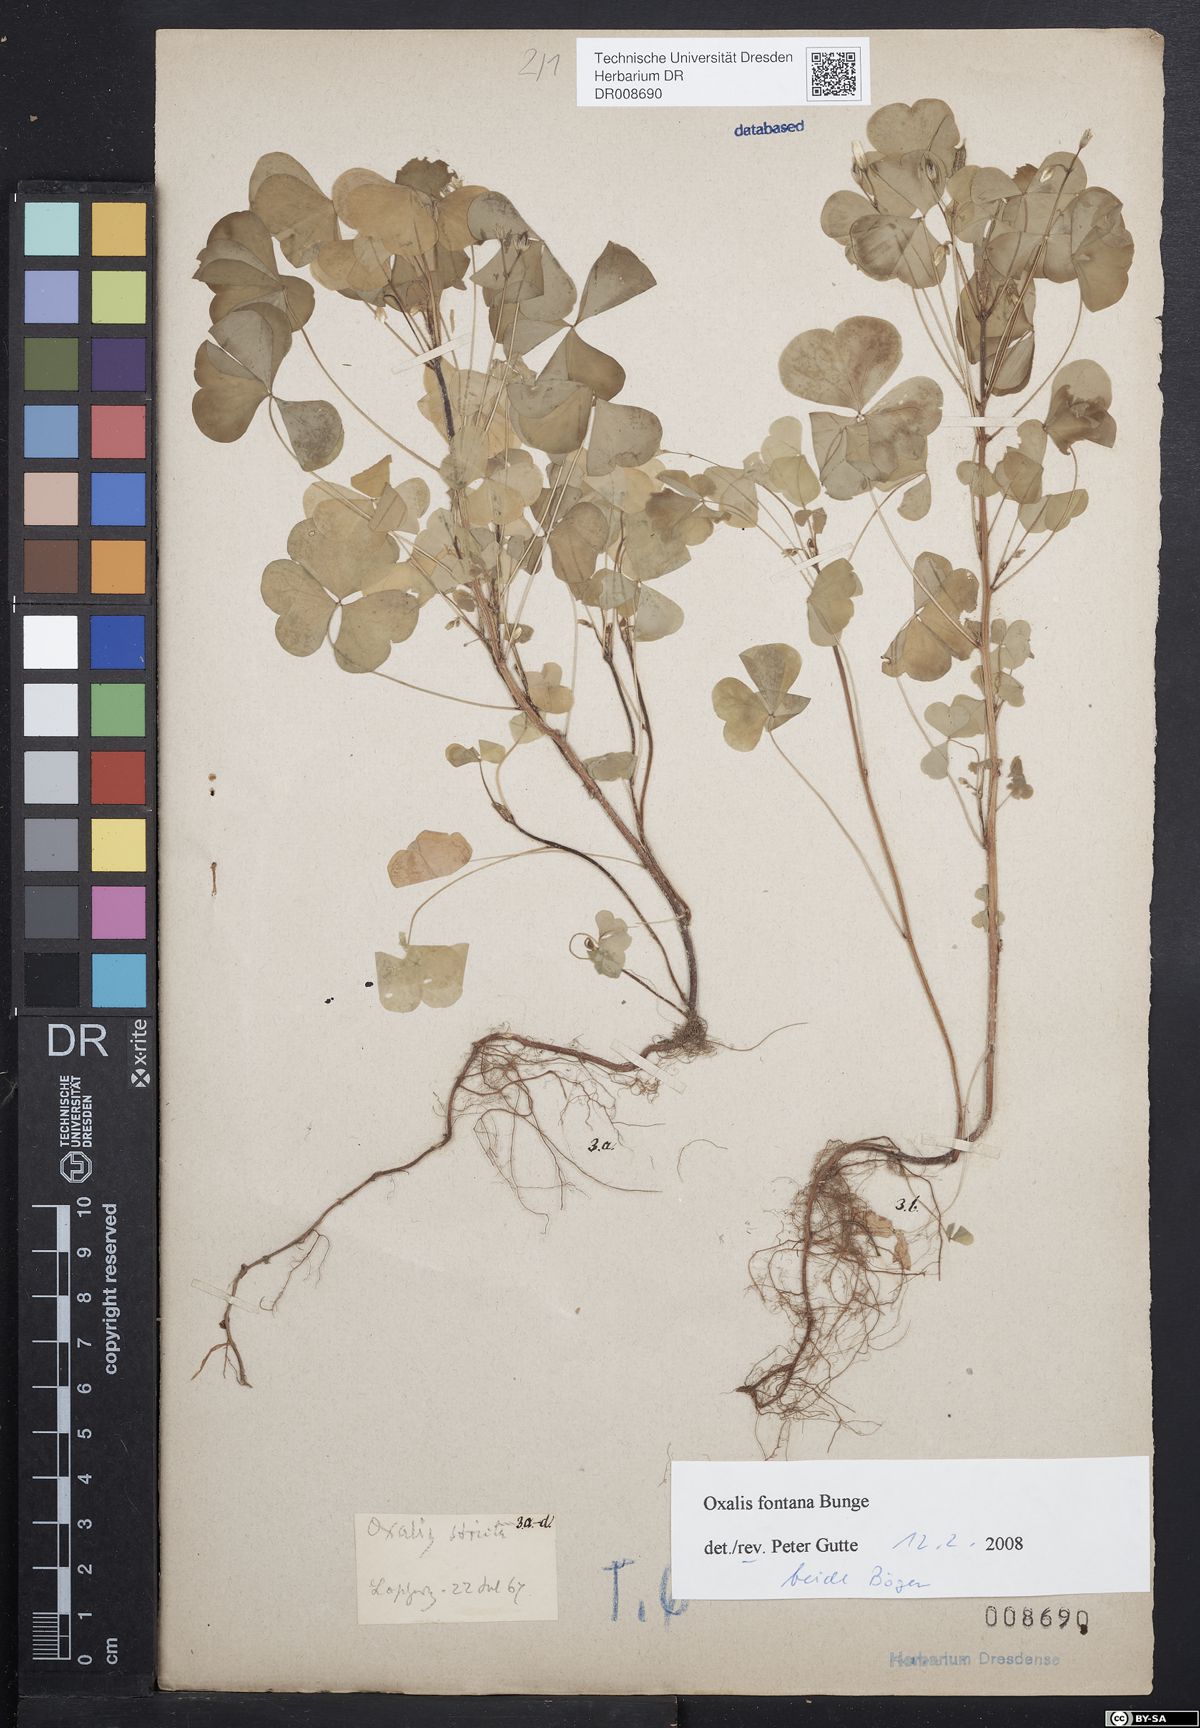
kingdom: Plantae
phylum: Tracheophyta
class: Magnoliopsida
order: Oxalidales
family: Oxalidaceae
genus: Oxalis
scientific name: Oxalis stricta
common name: Upright yellow-sorrel
